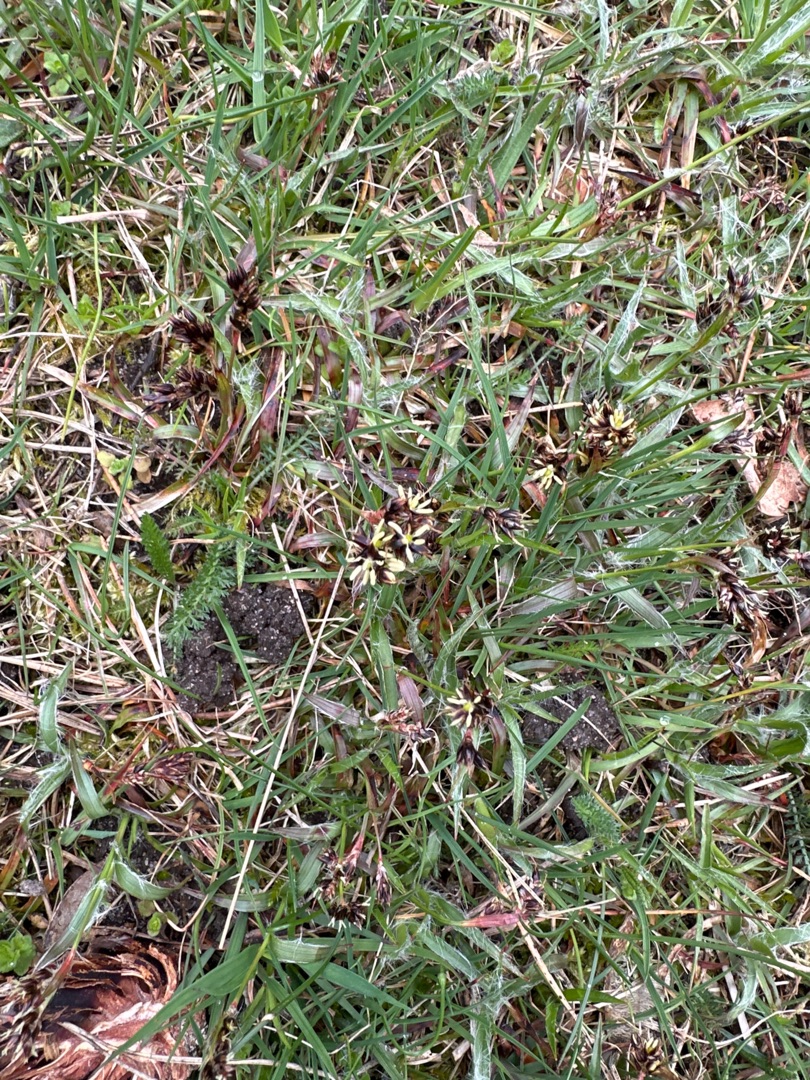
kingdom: Plantae
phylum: Tracheophyta
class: Liliopsida
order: Poales
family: Juncaceae
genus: Luzula
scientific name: Luzula campestris
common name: Mark-frytle
